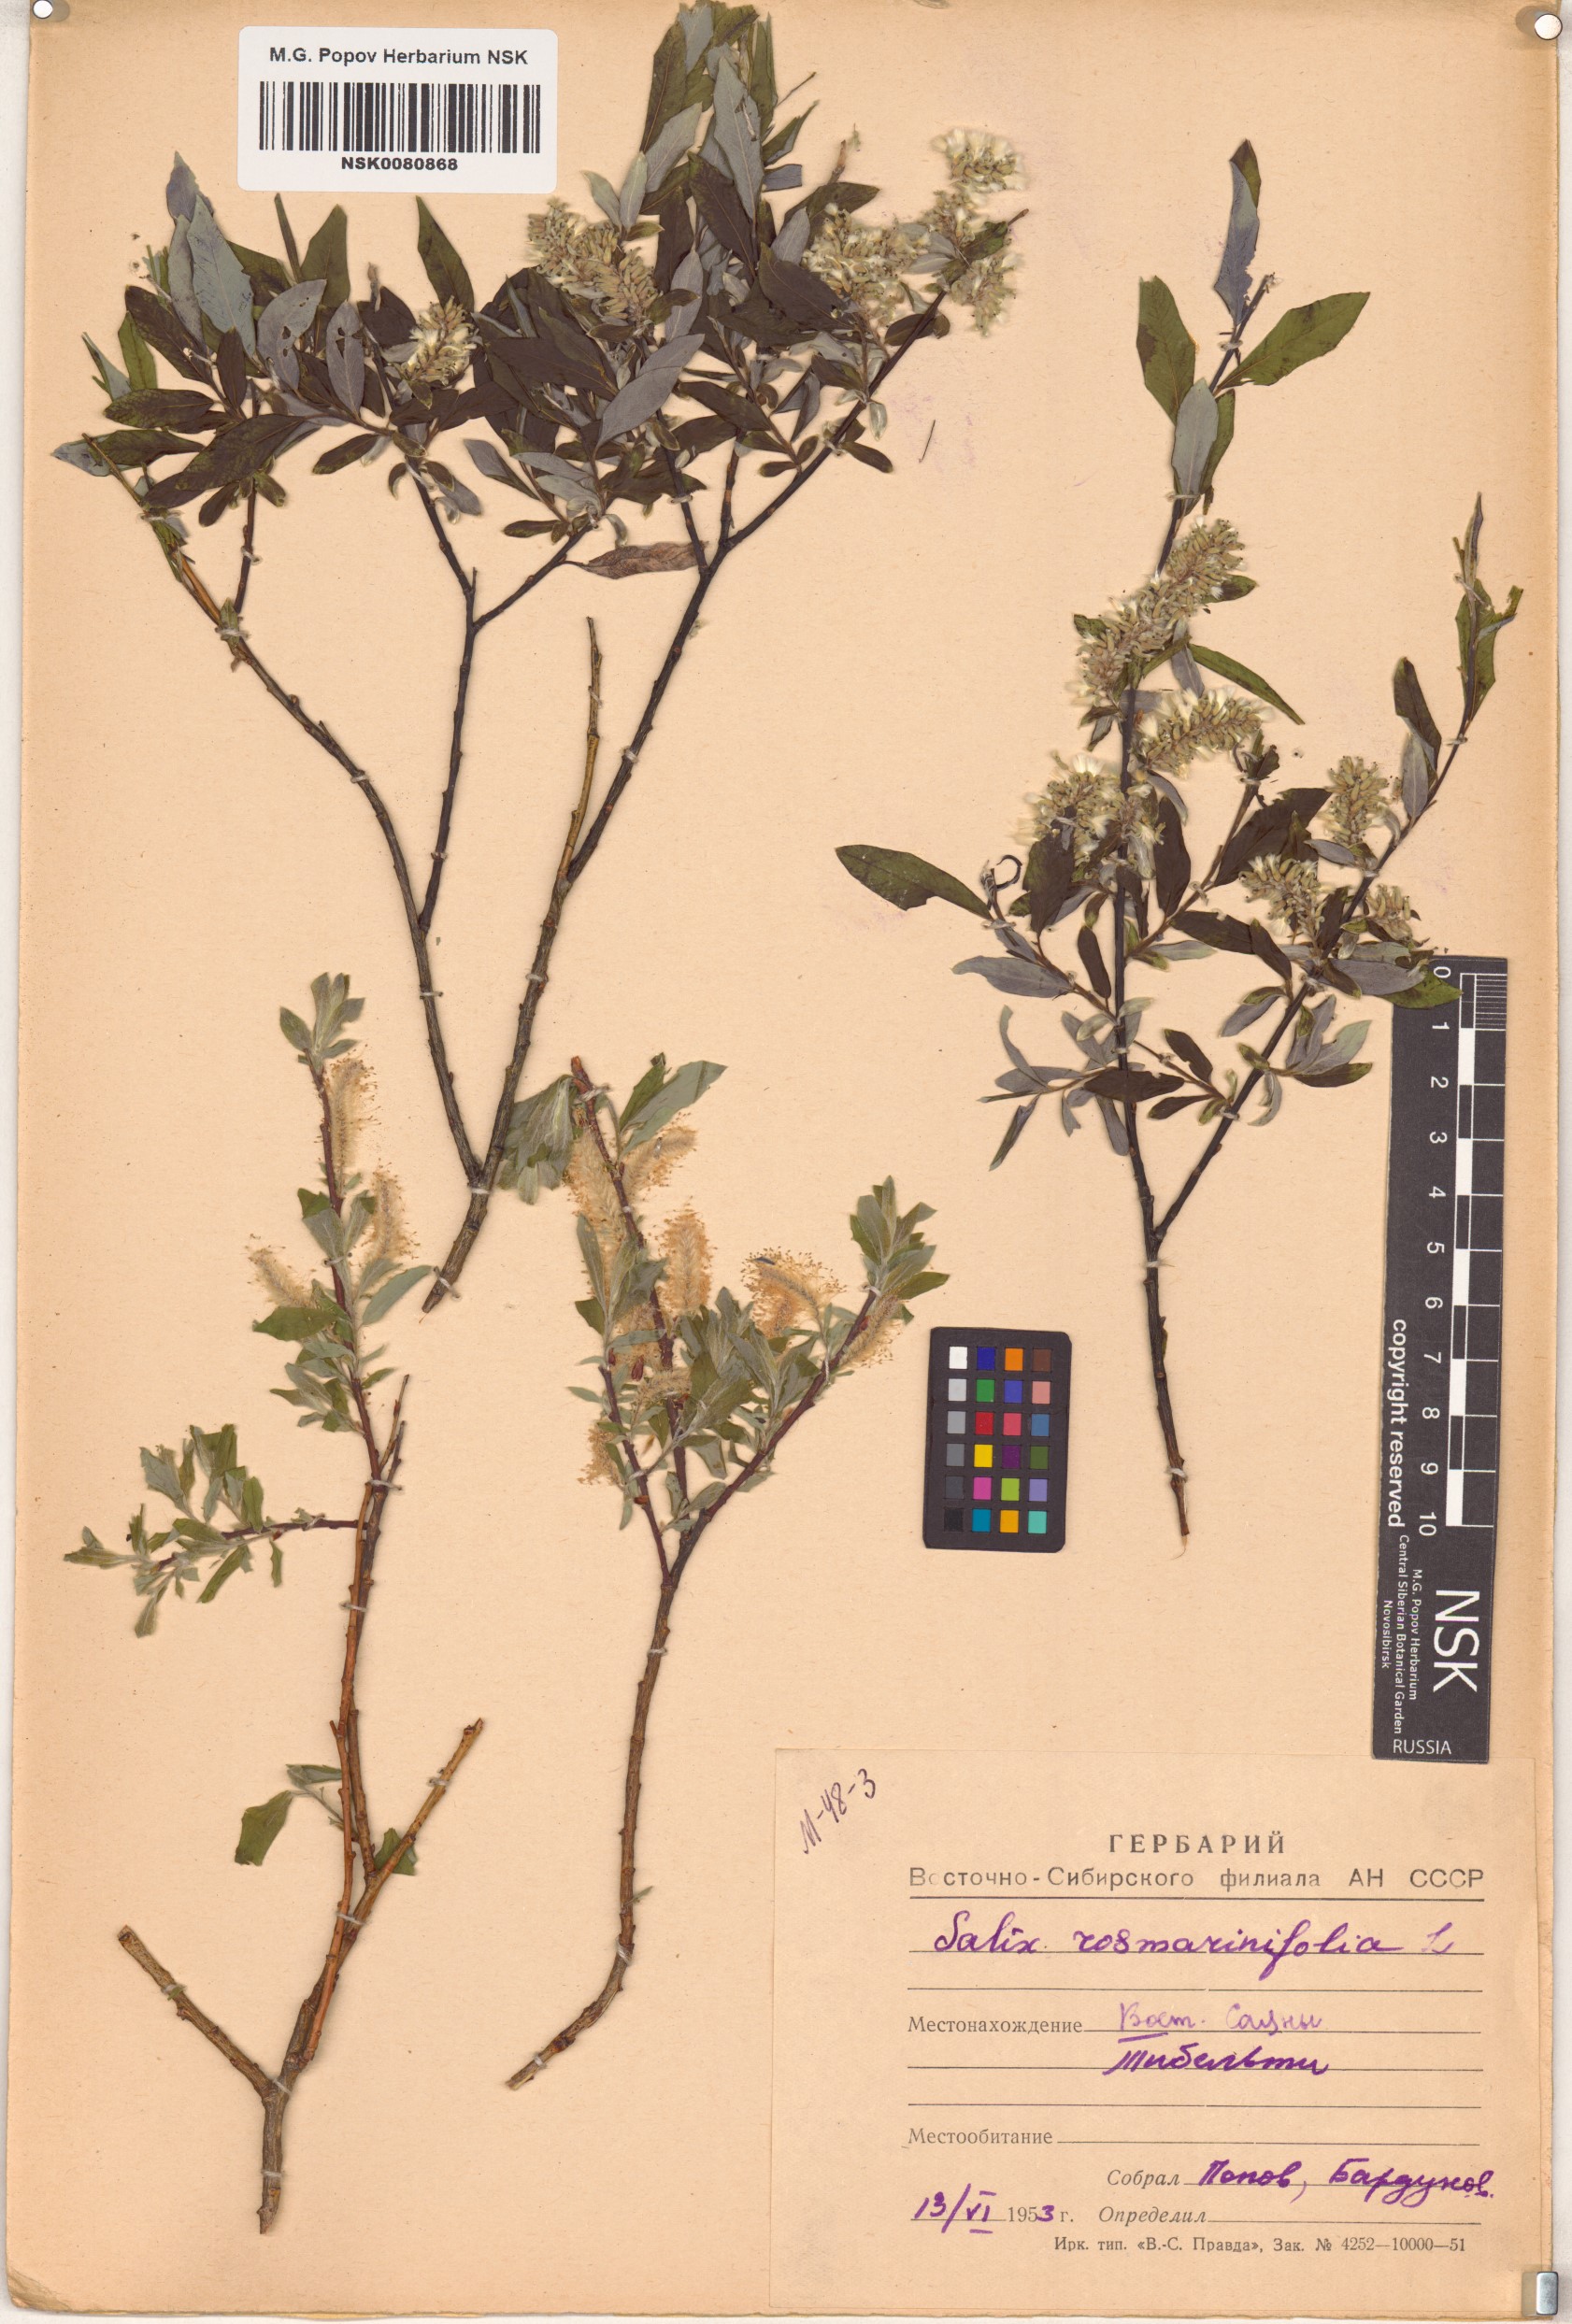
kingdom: Plantae
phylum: Tracheophyta
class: Magnoliopsida
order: Malpighiales
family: Salicaceae
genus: Salix
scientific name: Salix rosmarinifolia
